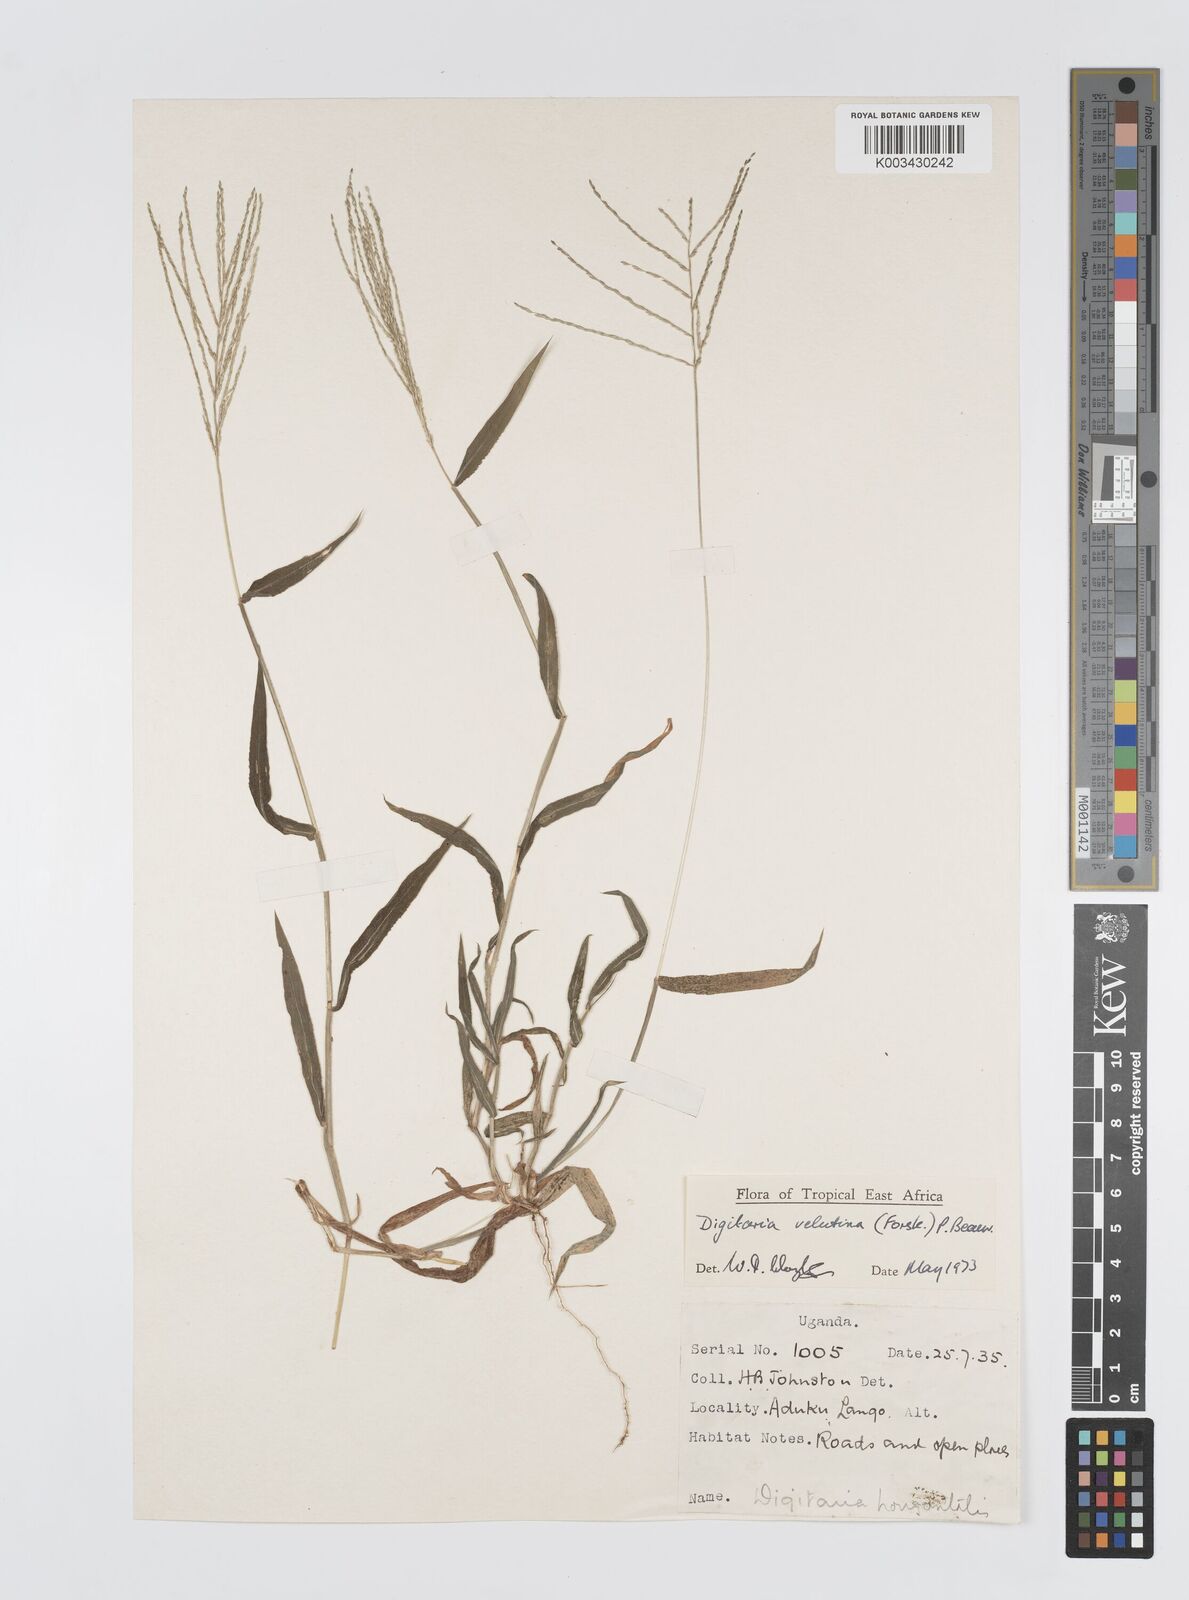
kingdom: Plantae
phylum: Tracheophyta
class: Liliopsida
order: Poales
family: Poaceae
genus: Digitaria
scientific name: Digitaria velutina
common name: Long-plume finger grass
